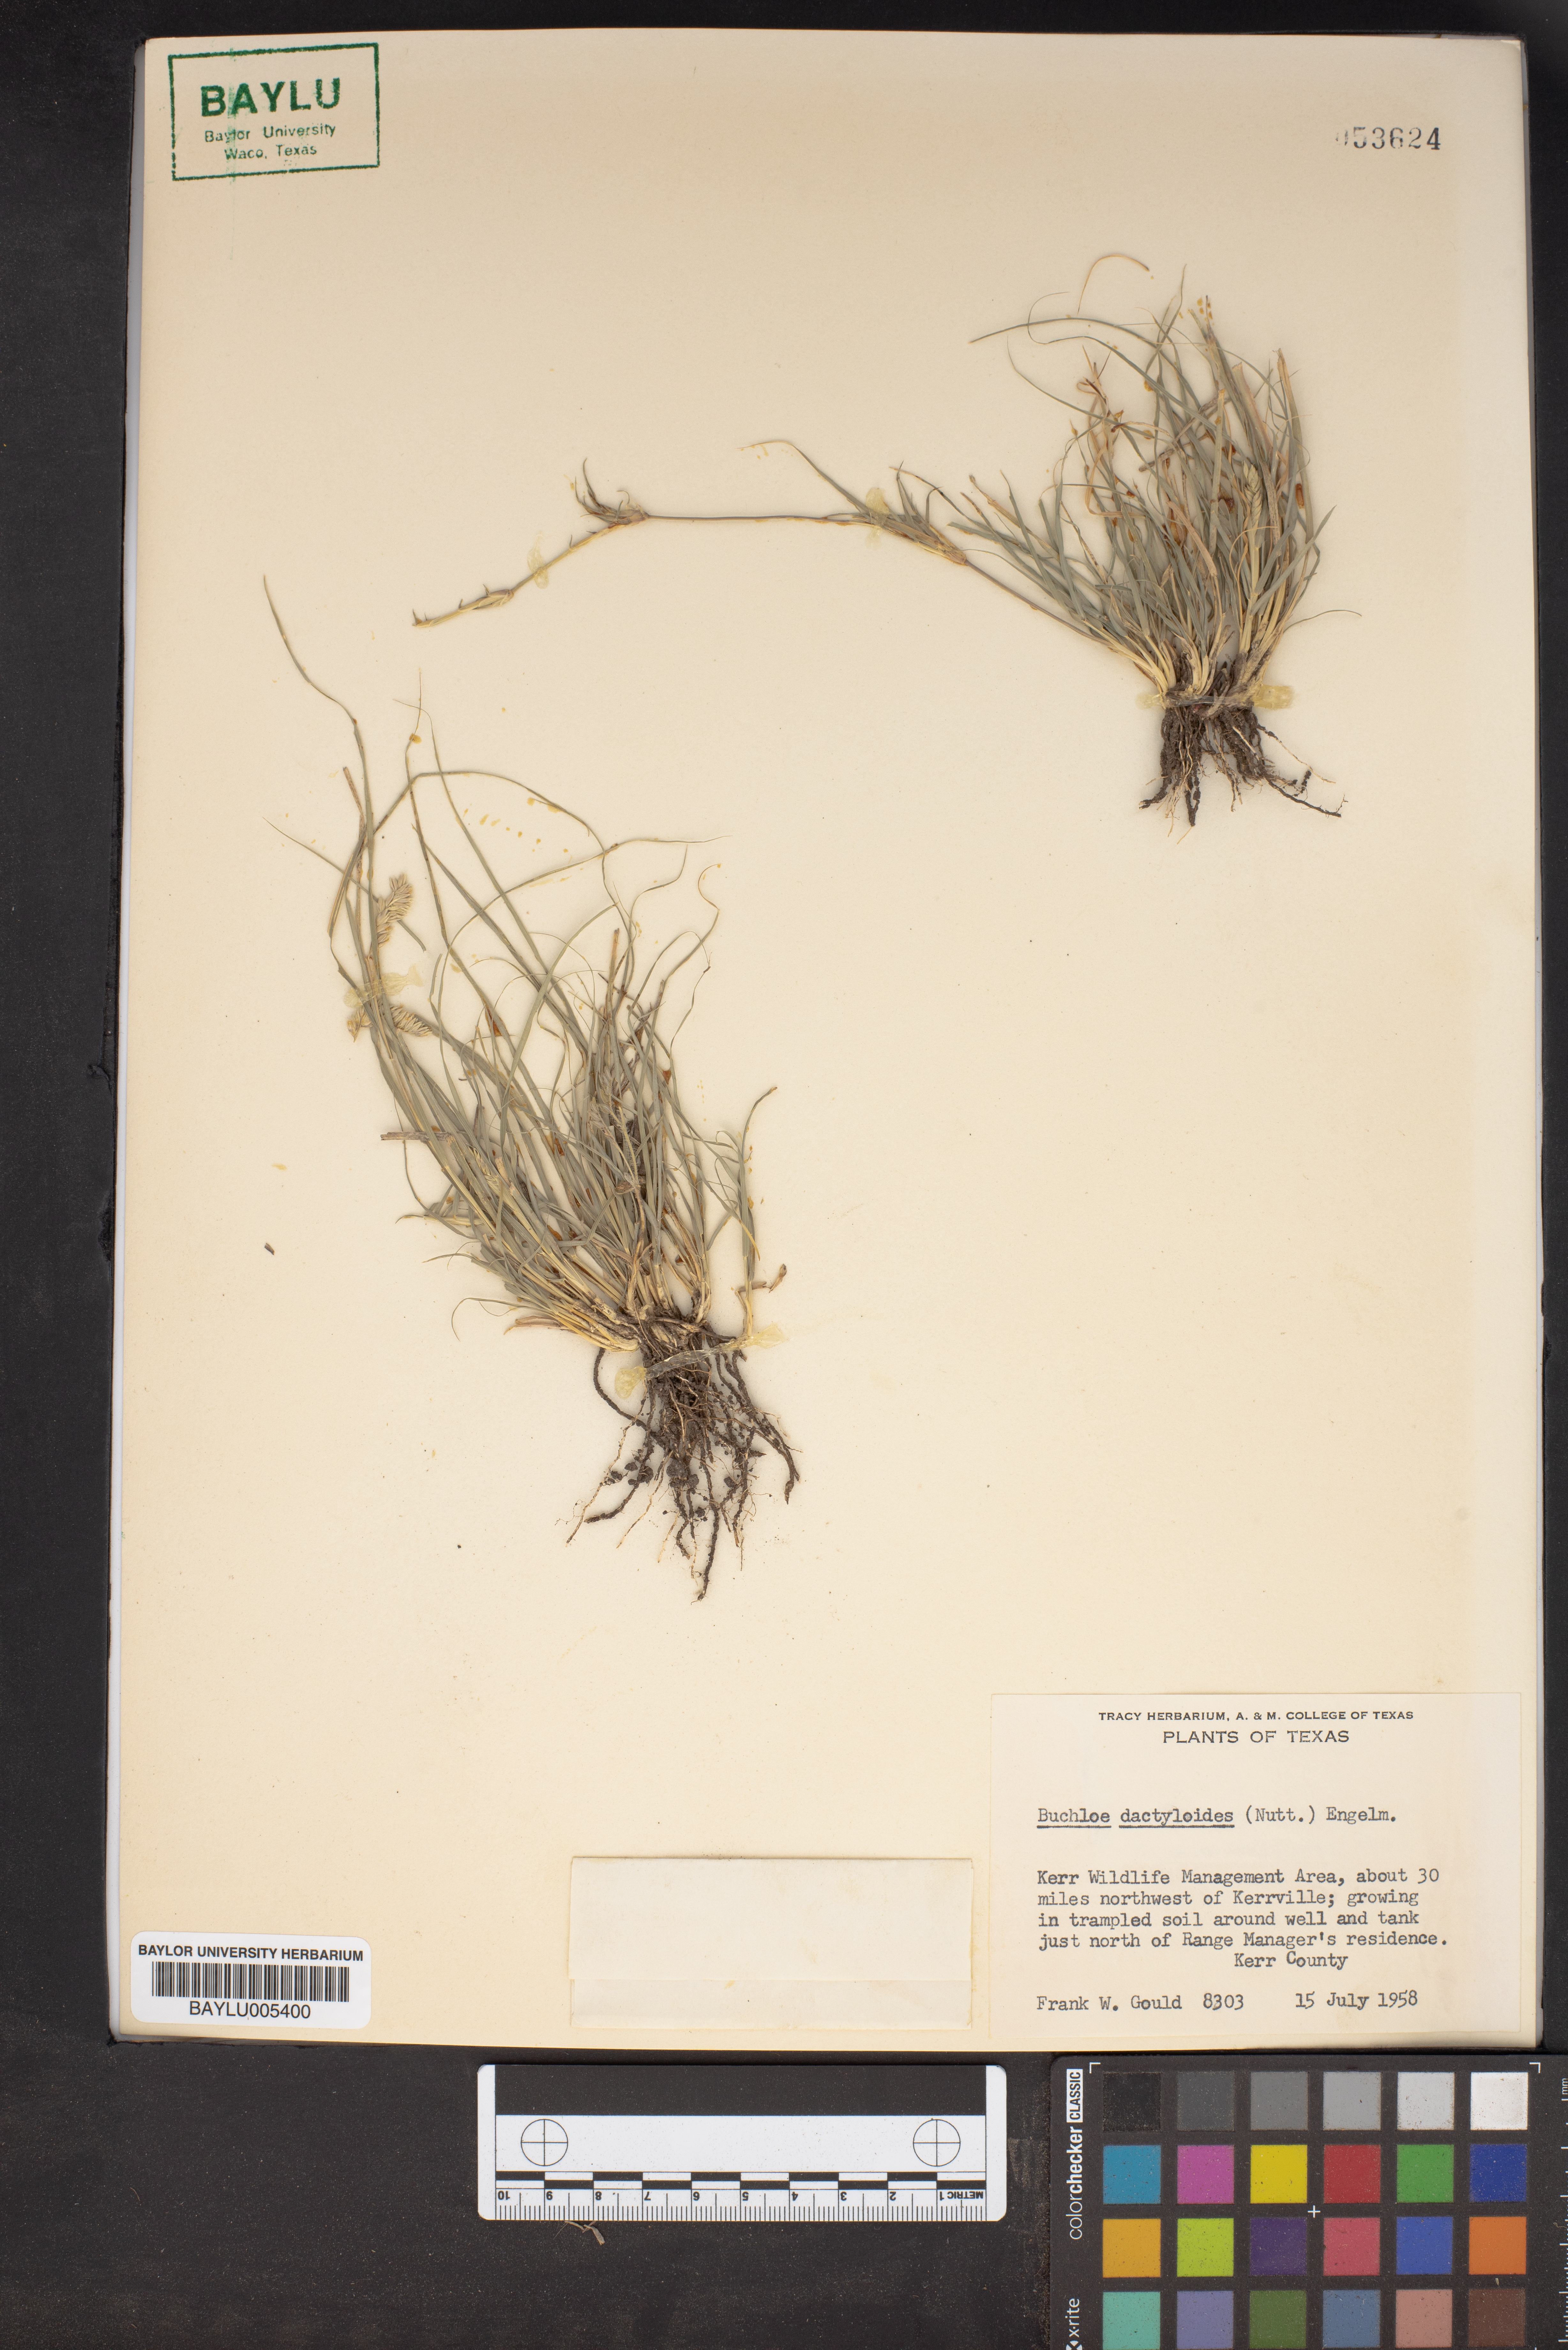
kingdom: Plantae
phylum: Tracheophyta
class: Liliopsida
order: Poales
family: Poaceae
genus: Bouteloua
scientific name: Bouteloua dactyloides
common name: Buffalo grass
